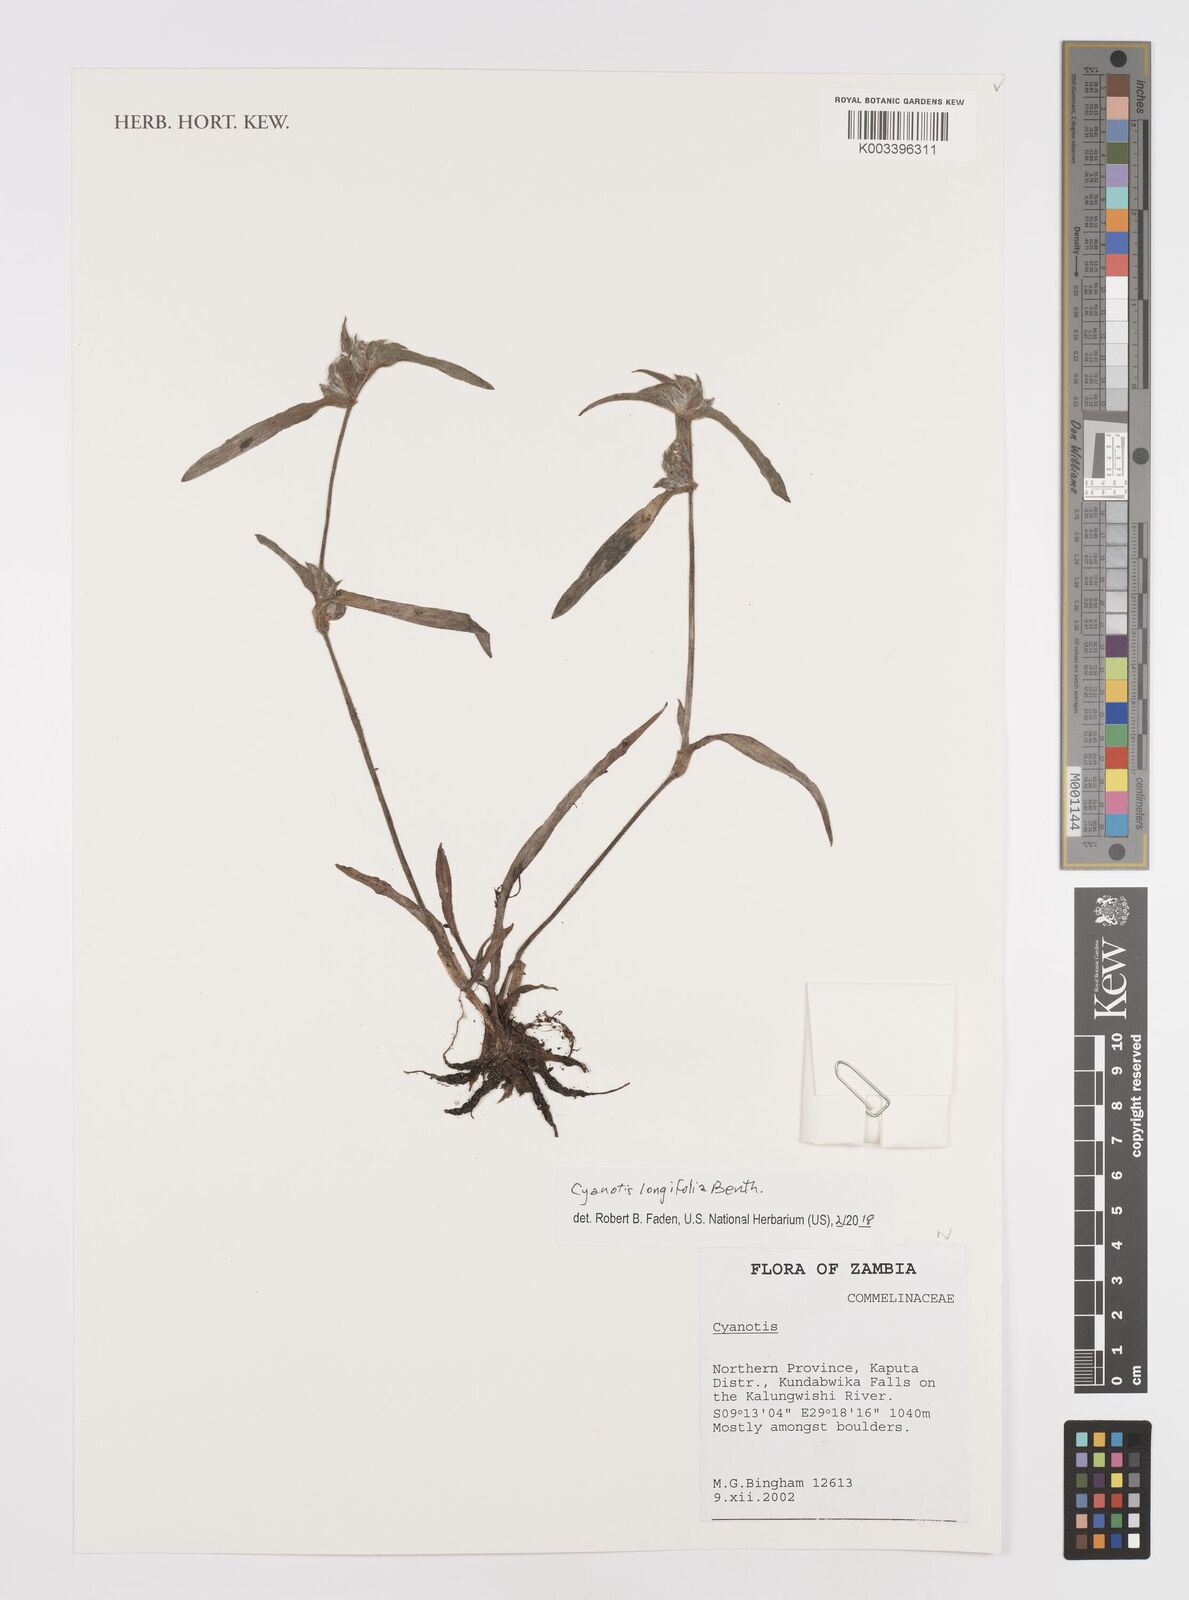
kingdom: Plantae
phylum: Tracheophyta
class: Liliopsida
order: Commelinales
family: Commelinaceae
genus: Cyanotis
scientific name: Cyanotis longifolia
